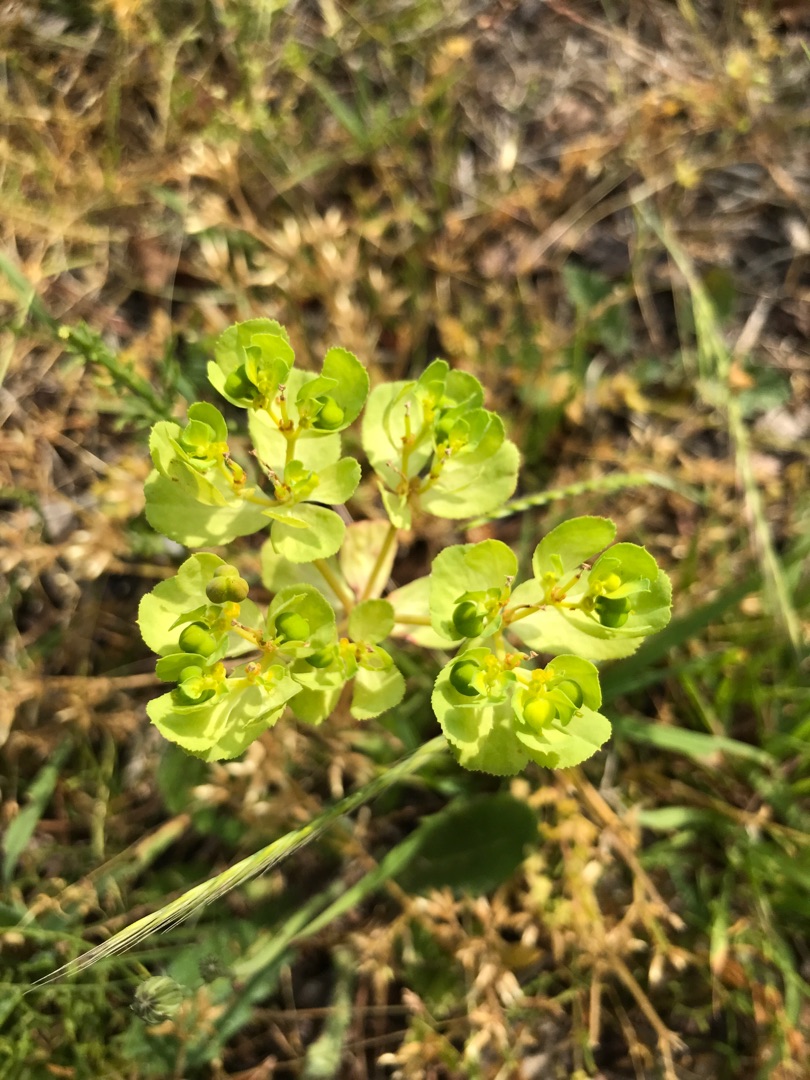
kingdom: Plantae
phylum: Tracheophyta
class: Magnoliopsida
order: Malpighiales
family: Euphorbiaceae
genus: Euphorbia
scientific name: Euphorbia helioscopia
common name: Skærm-vortemælk
